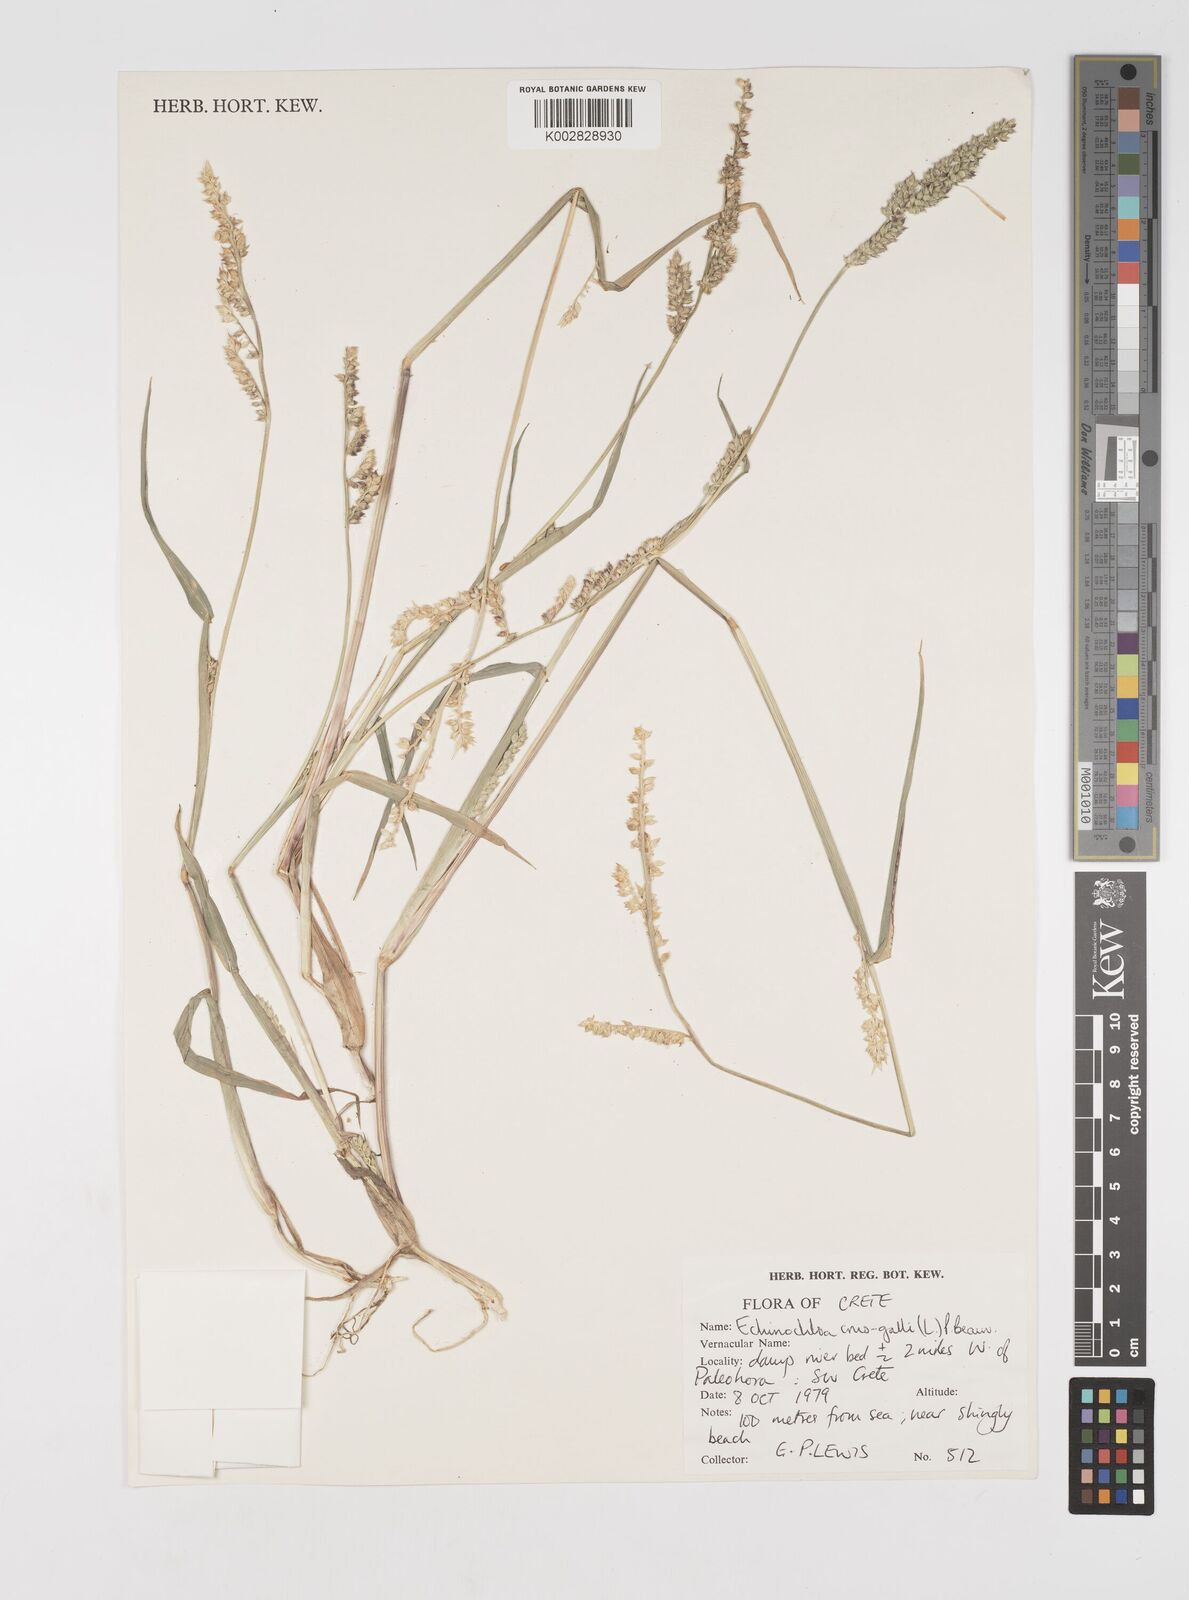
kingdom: Plantae
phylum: Tracheophyta
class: Liliopsida
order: Poales
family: Poaceae
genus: Echinochloa
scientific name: Echinochloa crus-galli
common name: Cockspur
